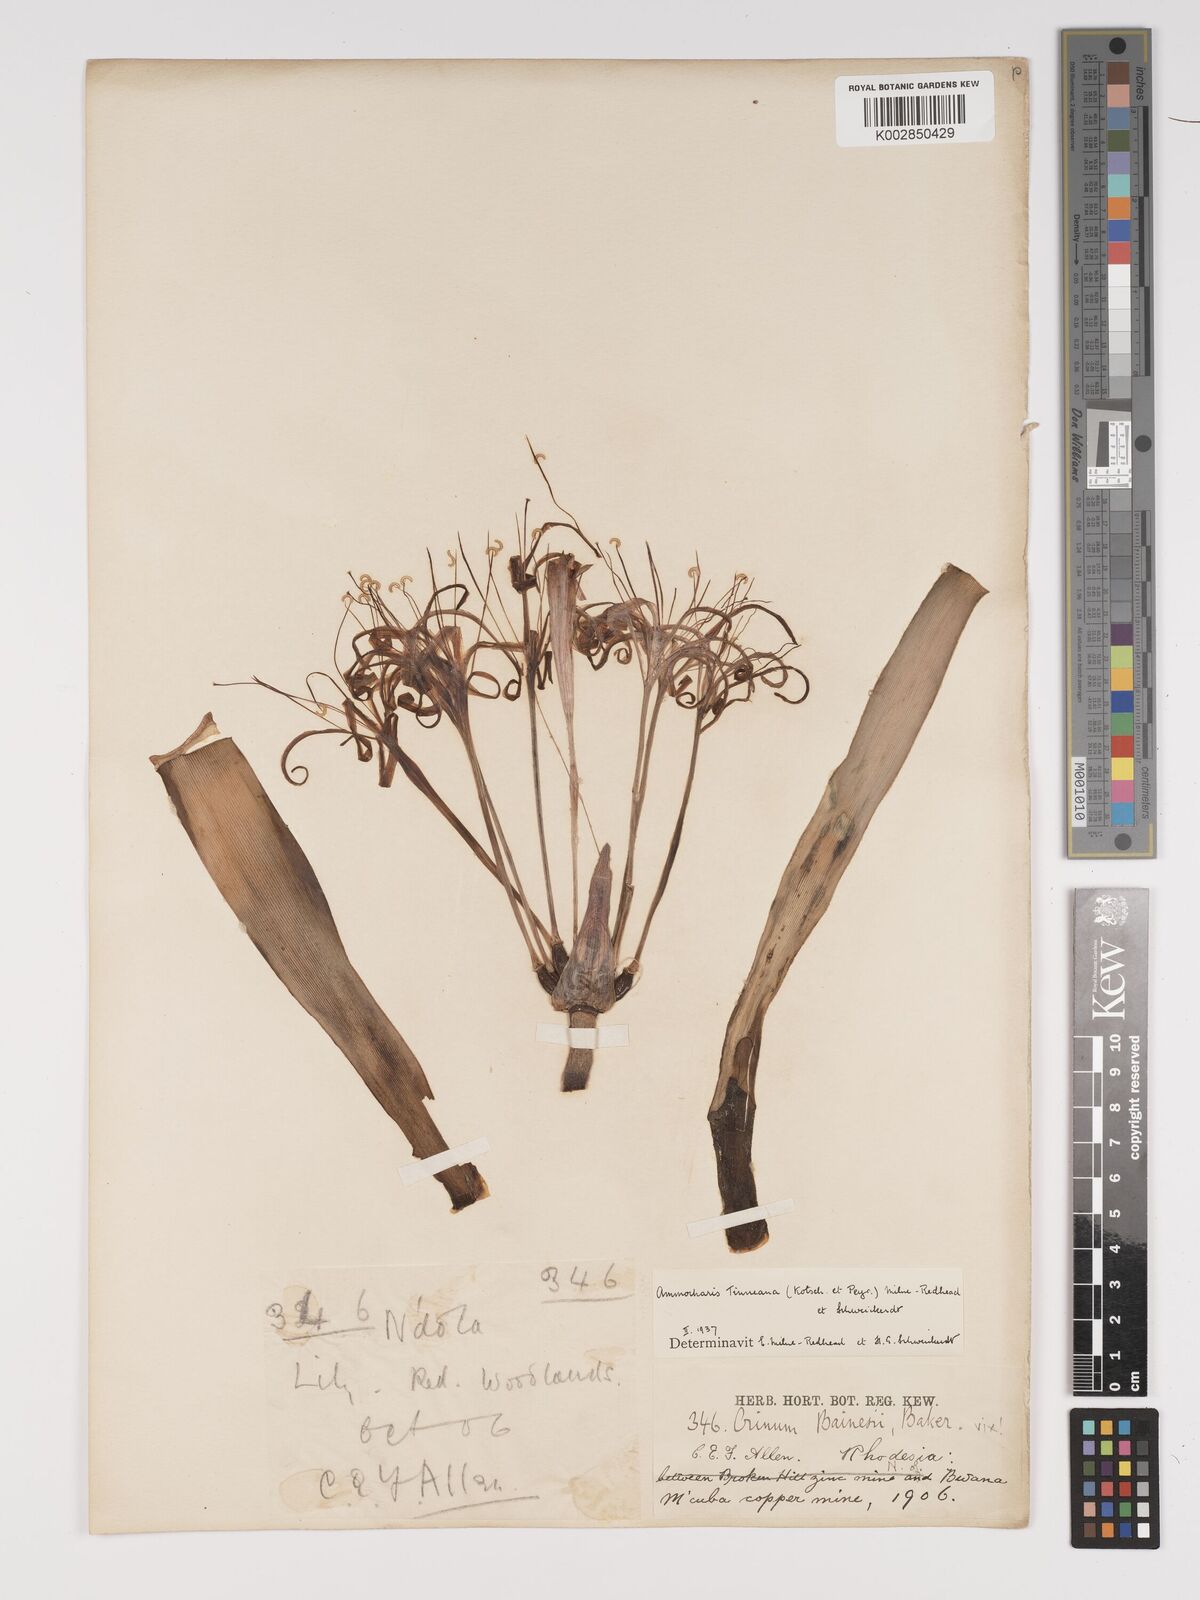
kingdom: Plantae
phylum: Tracheophyta
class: Liliopsida
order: Asparagales
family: Amaryllidaceae
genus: Ammocharis
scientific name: Ammocharis tinneana
